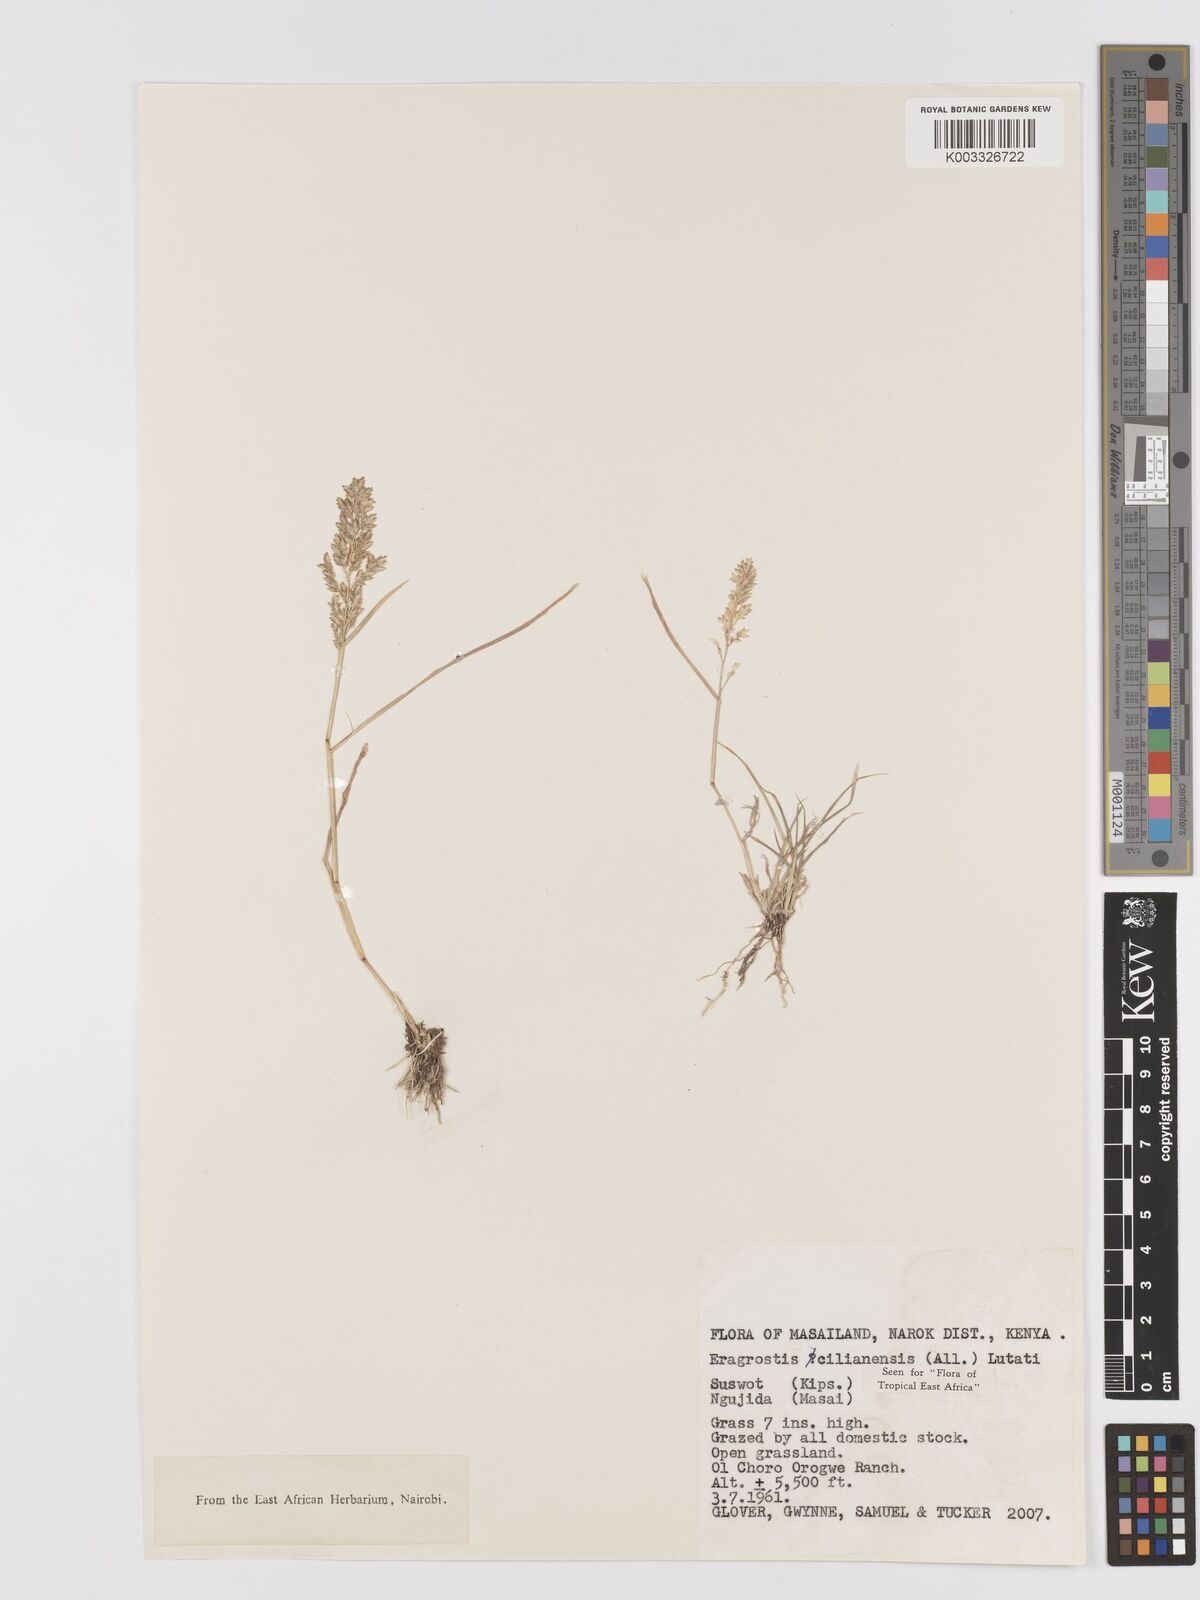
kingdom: Plantae
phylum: Tracheophyta
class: Liliopsida
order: Poales
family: Poaceae
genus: Eragrostis
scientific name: Eragrostis cilianensis
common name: Stinkgrass
